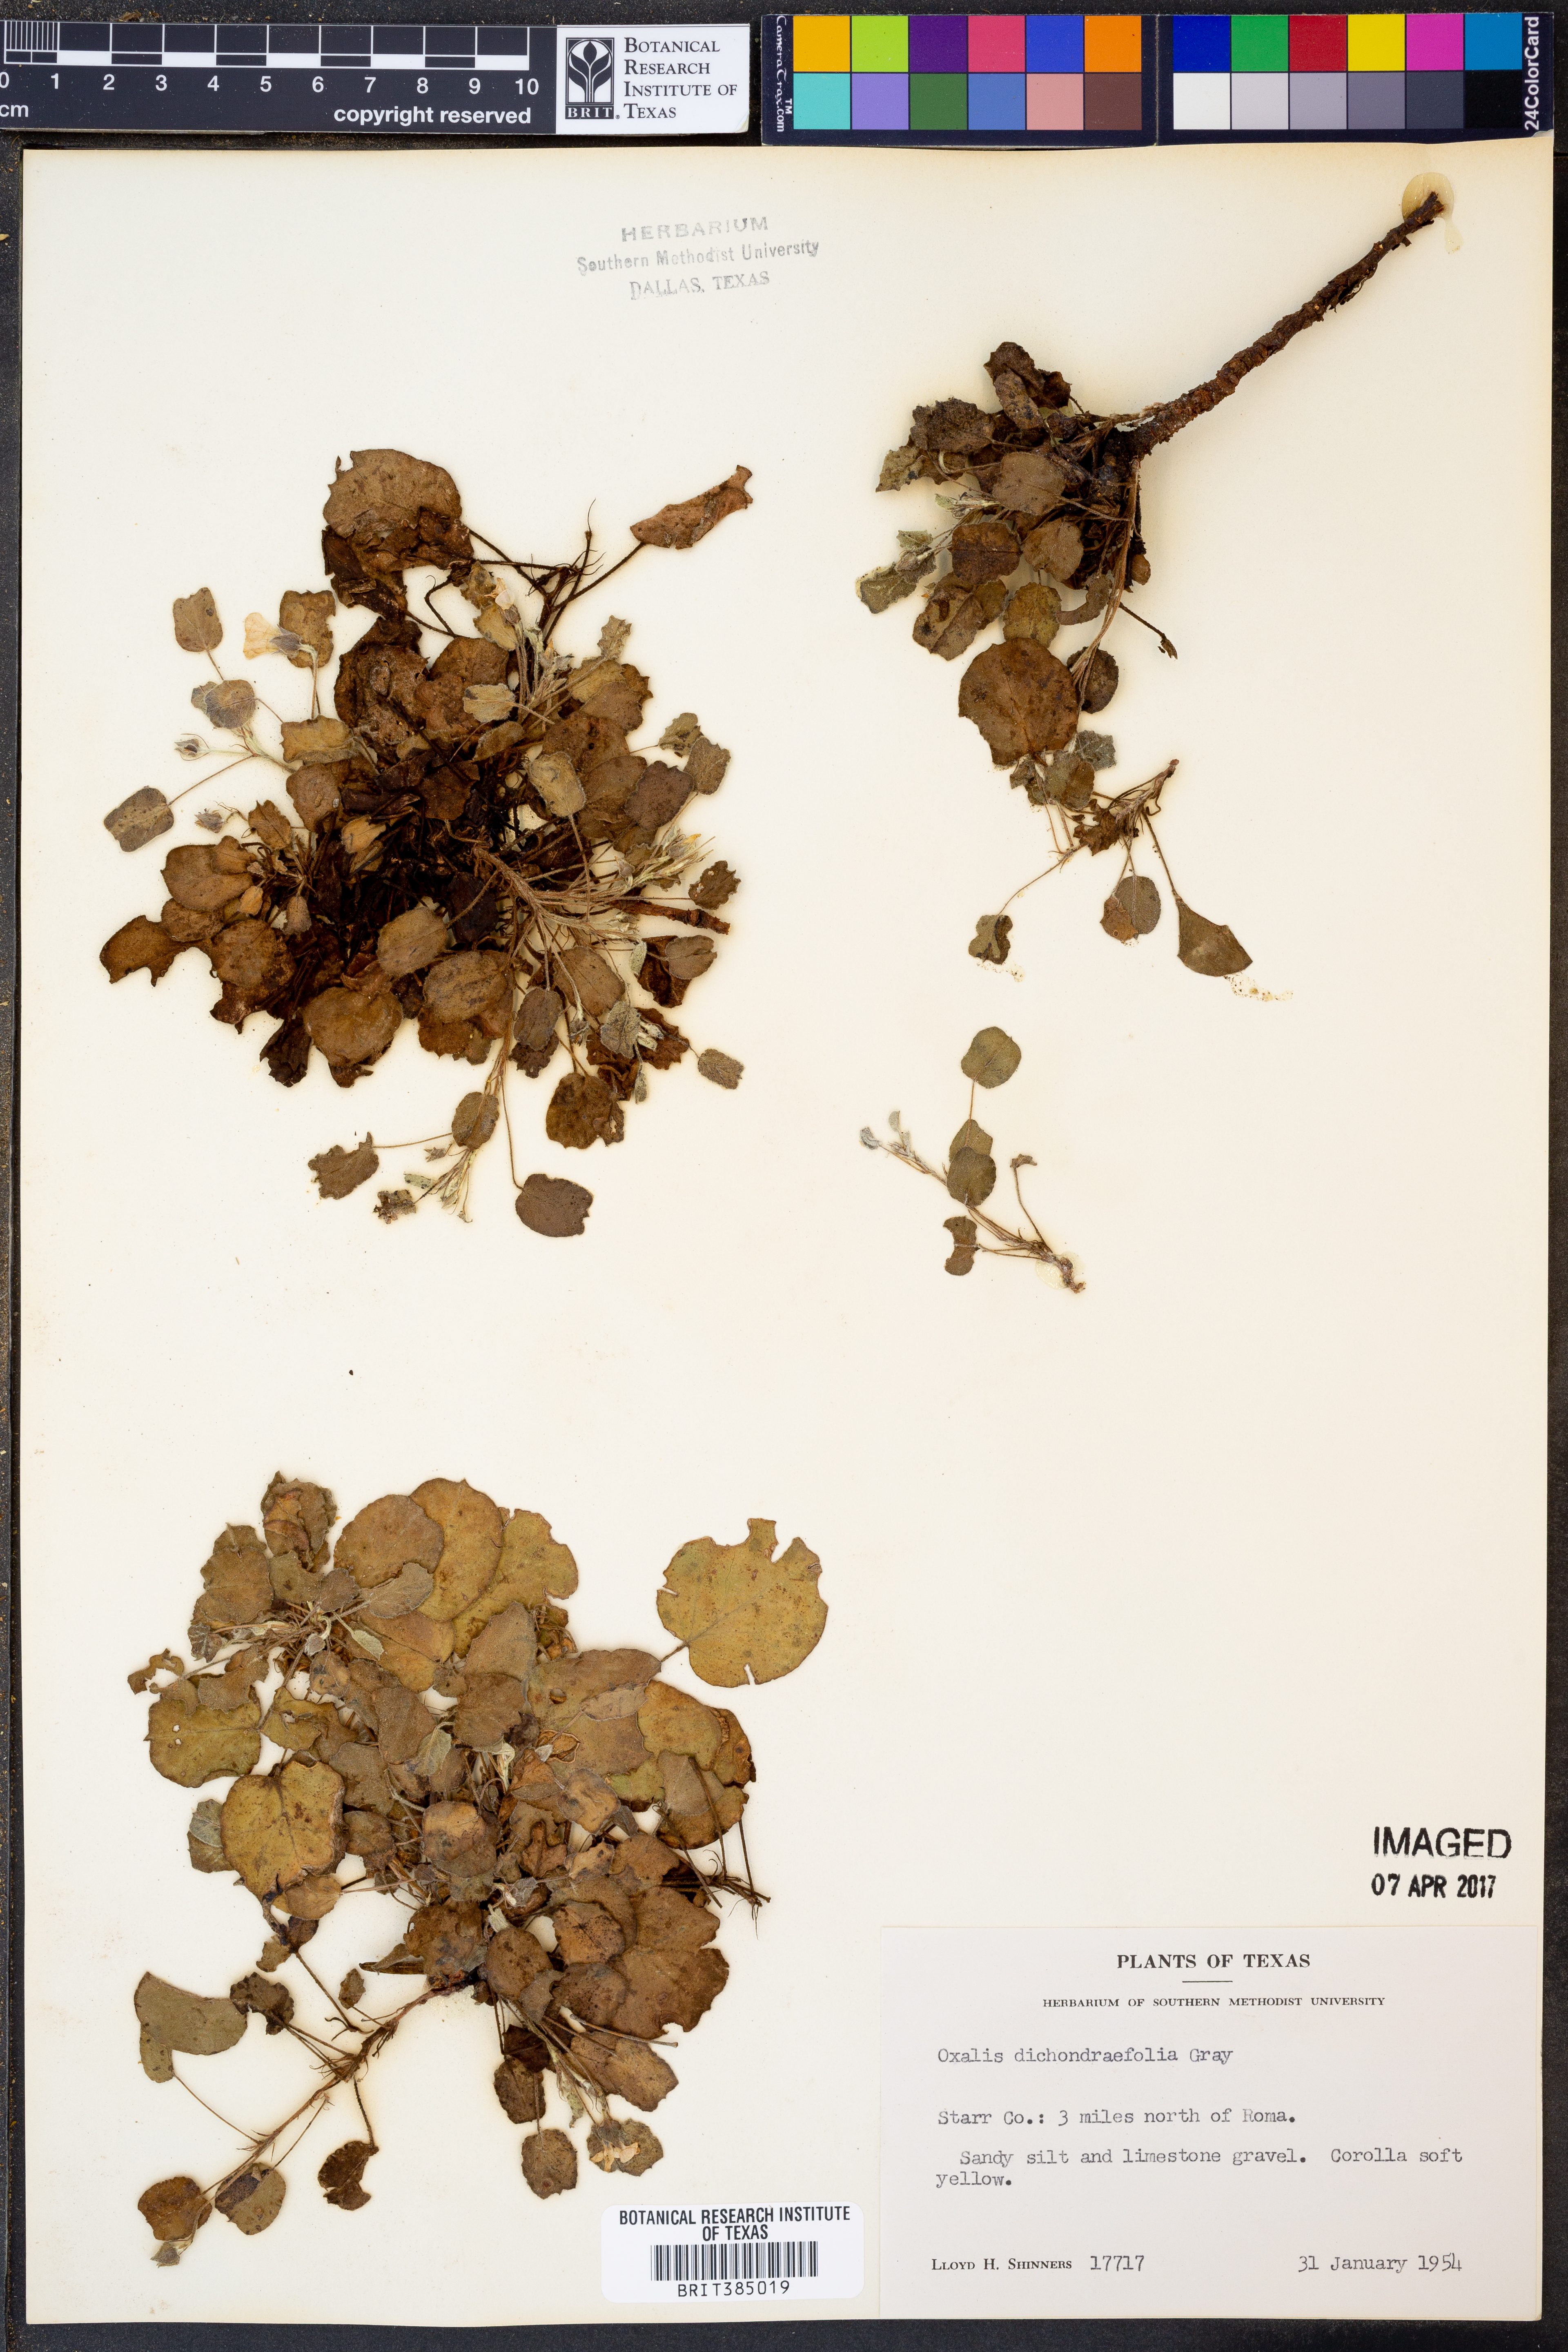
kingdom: Plantae
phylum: Tracheophyta
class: Magnoliopsida
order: Oxalidales
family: Oxalidaceae
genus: Oxalis
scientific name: Oxalis dichondrifolia
